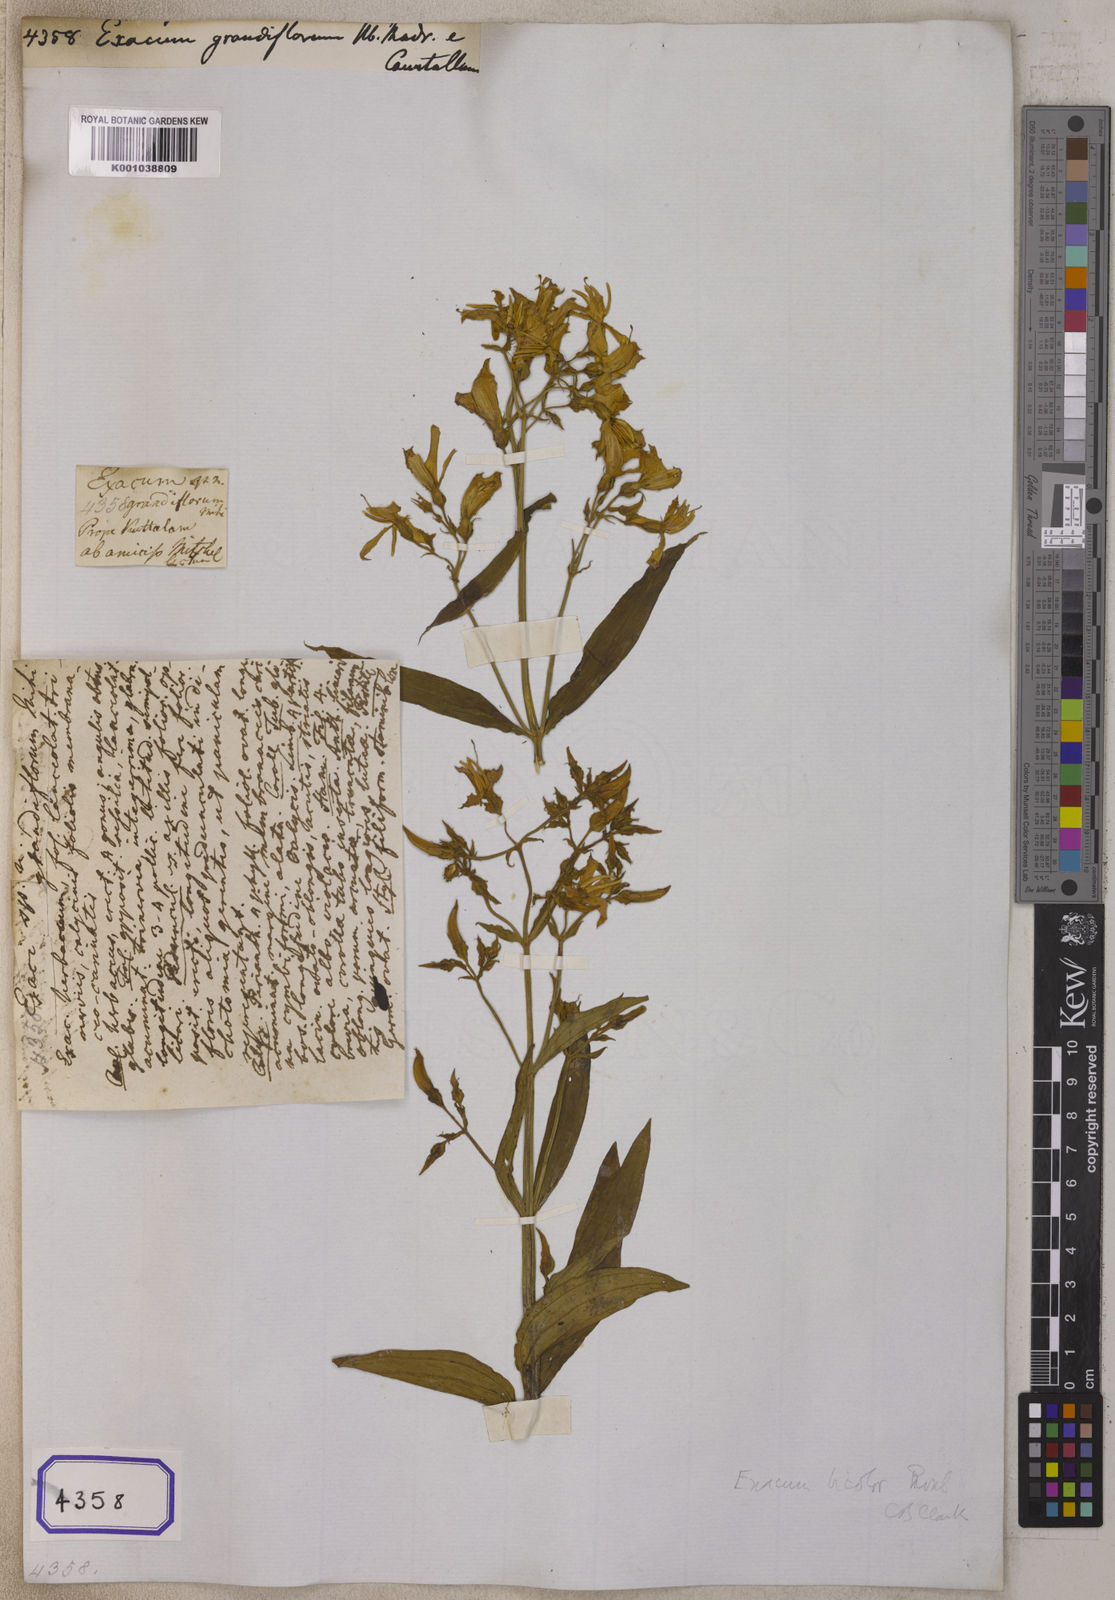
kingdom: Plantae
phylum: Tracheophyta
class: Magnoliopsida
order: Gentianales
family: Gentianaceae
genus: Exacum
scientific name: Exacum
